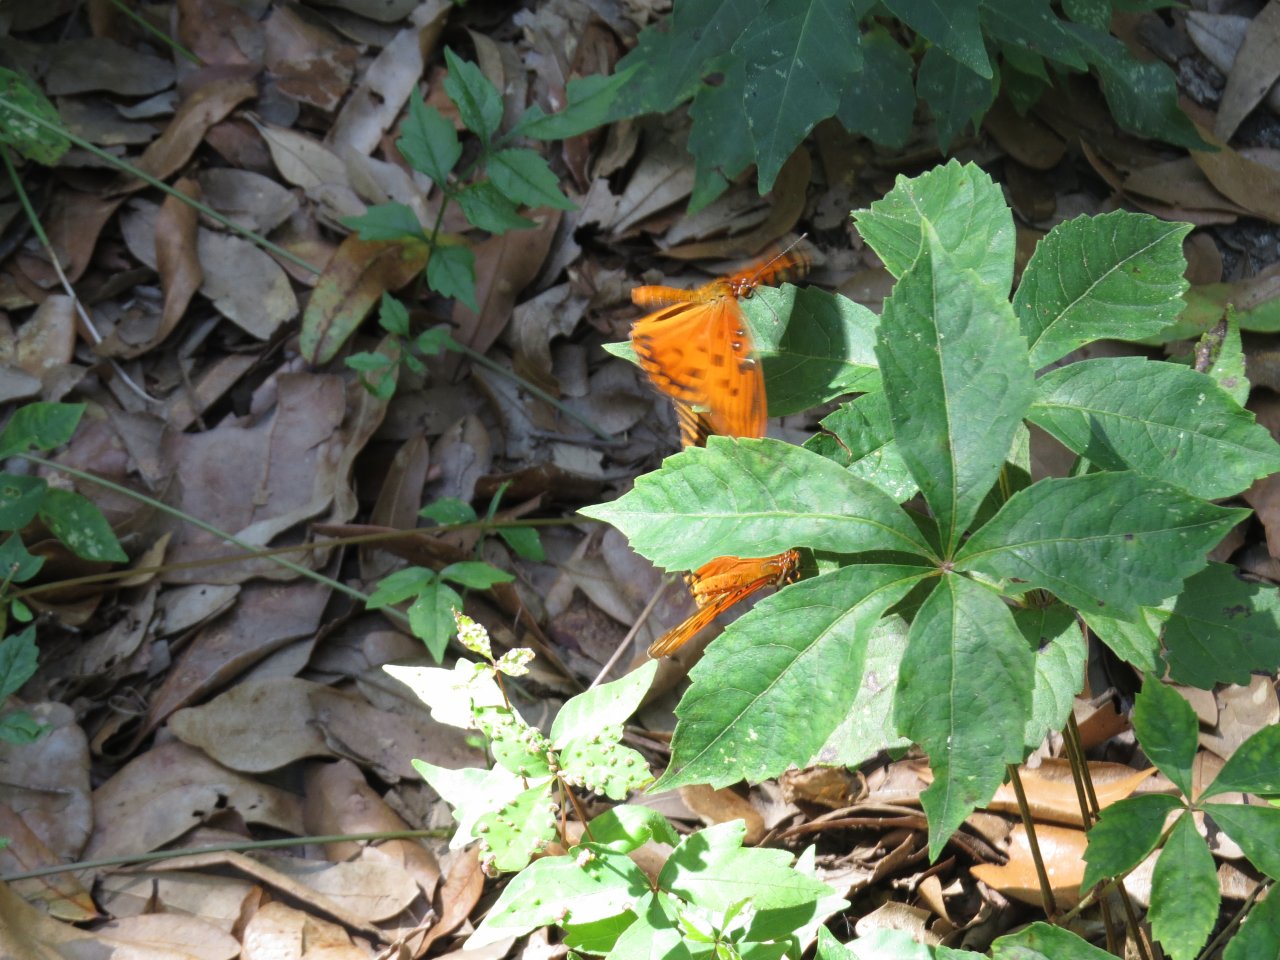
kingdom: Animalia
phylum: Arthropoda
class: Insecta
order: Lepidoptera
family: Nymphalidae
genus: Dione
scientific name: Dione vanillae
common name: Gulf Fritillary
